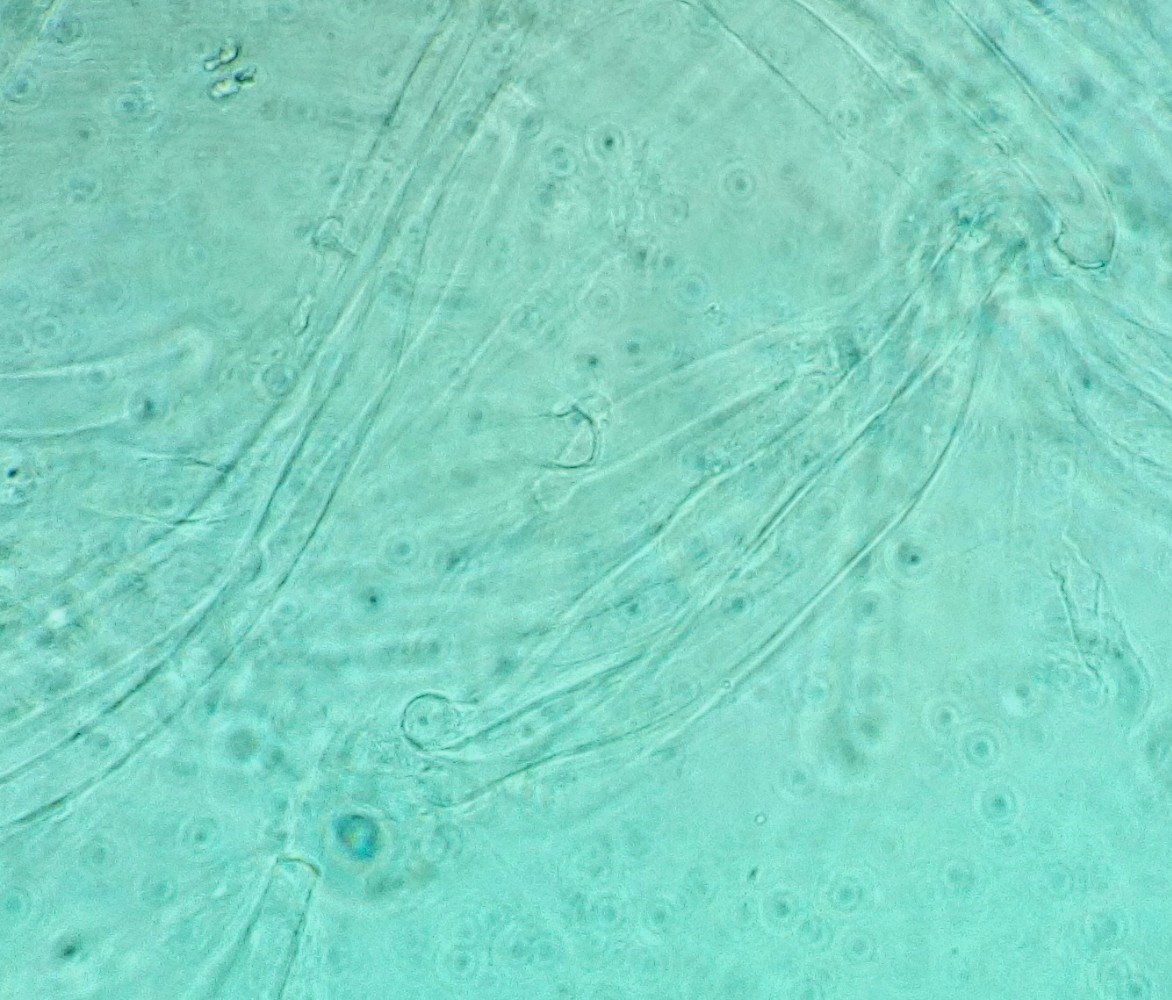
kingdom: Fungi
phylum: Basidiomycota
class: Agaricomycetes
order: Agaricales
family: Pluteaceae
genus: Pluteus
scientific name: Pluteus pouzarianus
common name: plantage-skærmhat
